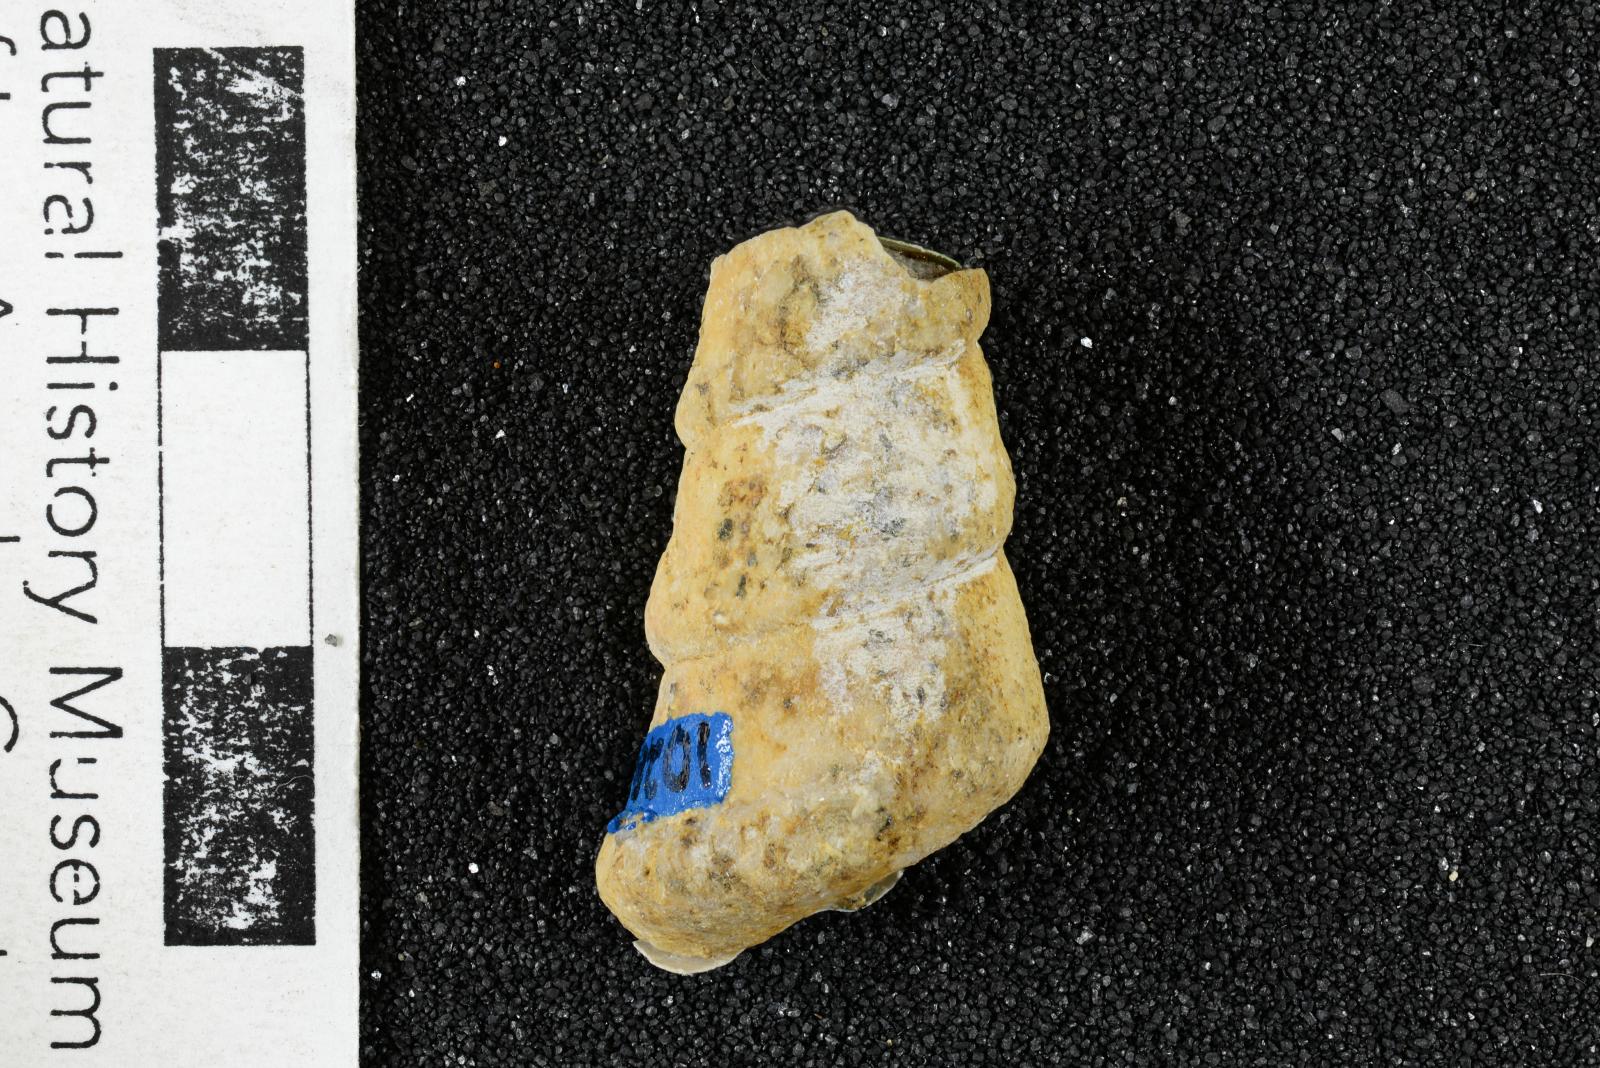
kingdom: Animalia
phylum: Mollusca
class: Gastropoda
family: Turritellidae
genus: Turritella
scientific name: Turritella peninsularis
